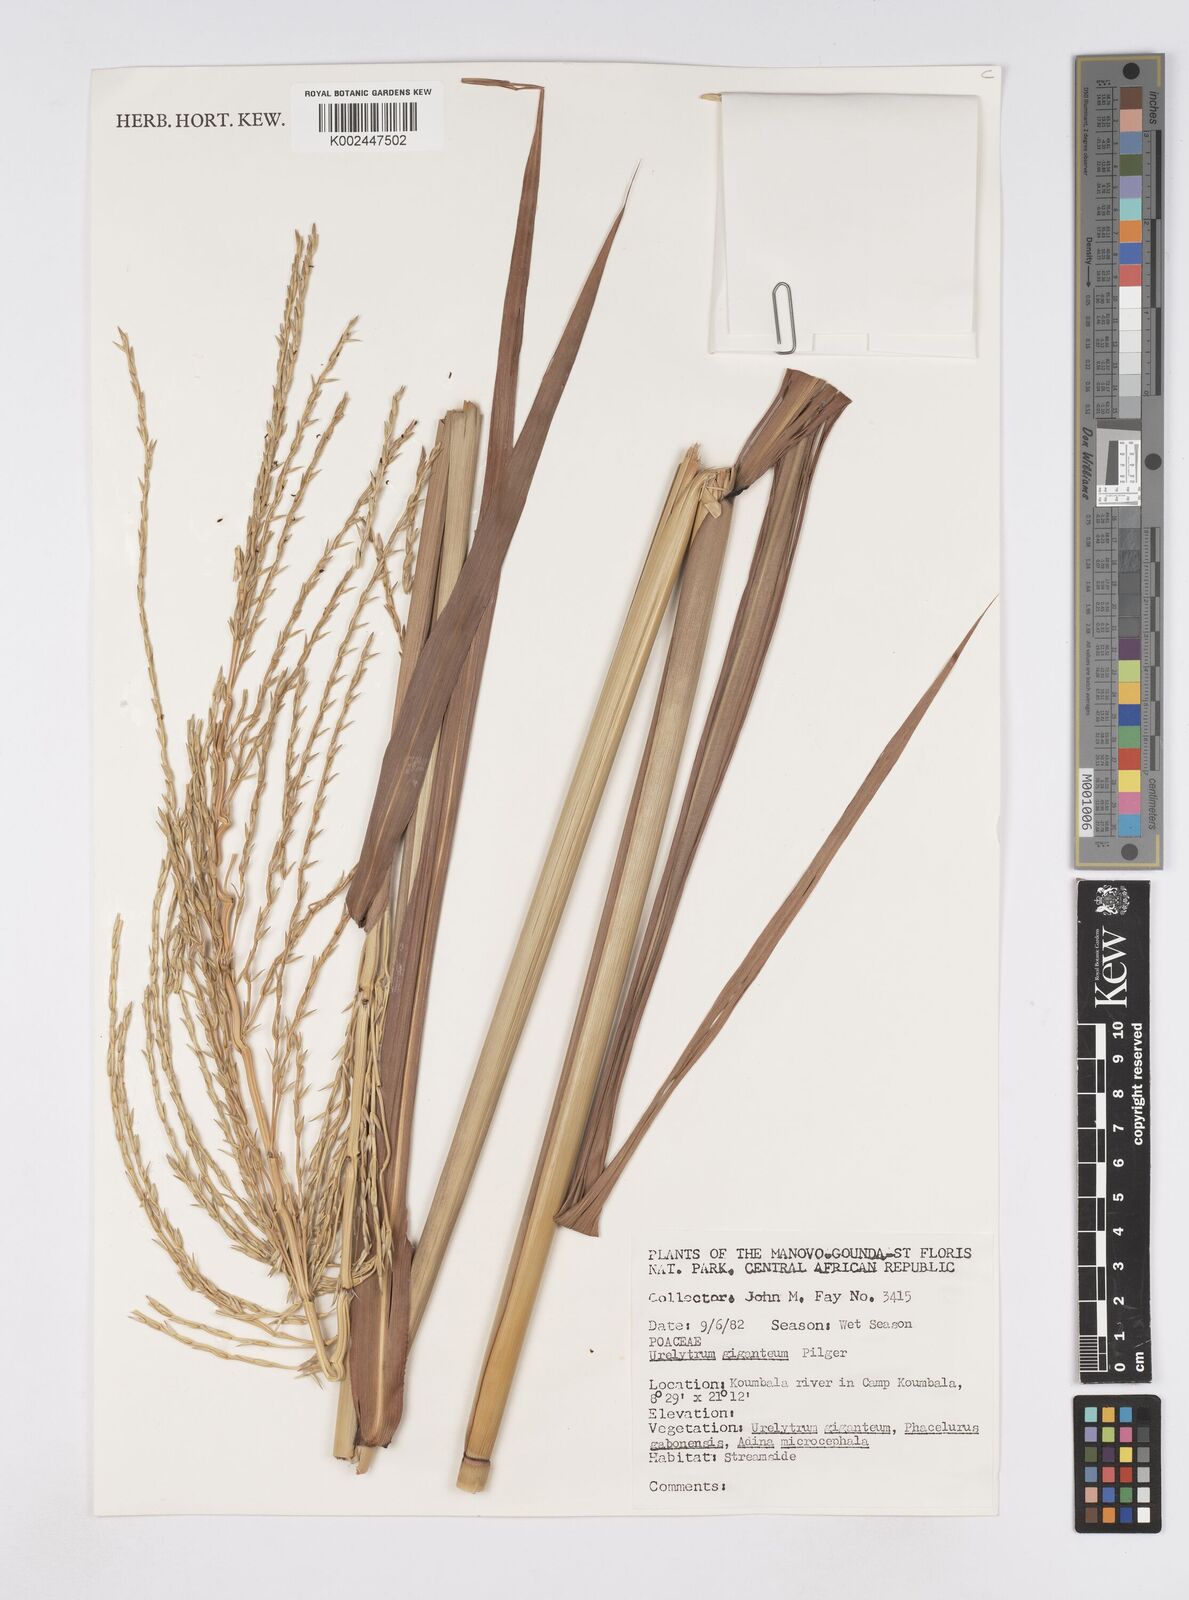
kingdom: Plantae
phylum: Tracheophyta
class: Liliopsida
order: Poales
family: Poaceae
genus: Urelytrum
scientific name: Urelytrum giganteum
